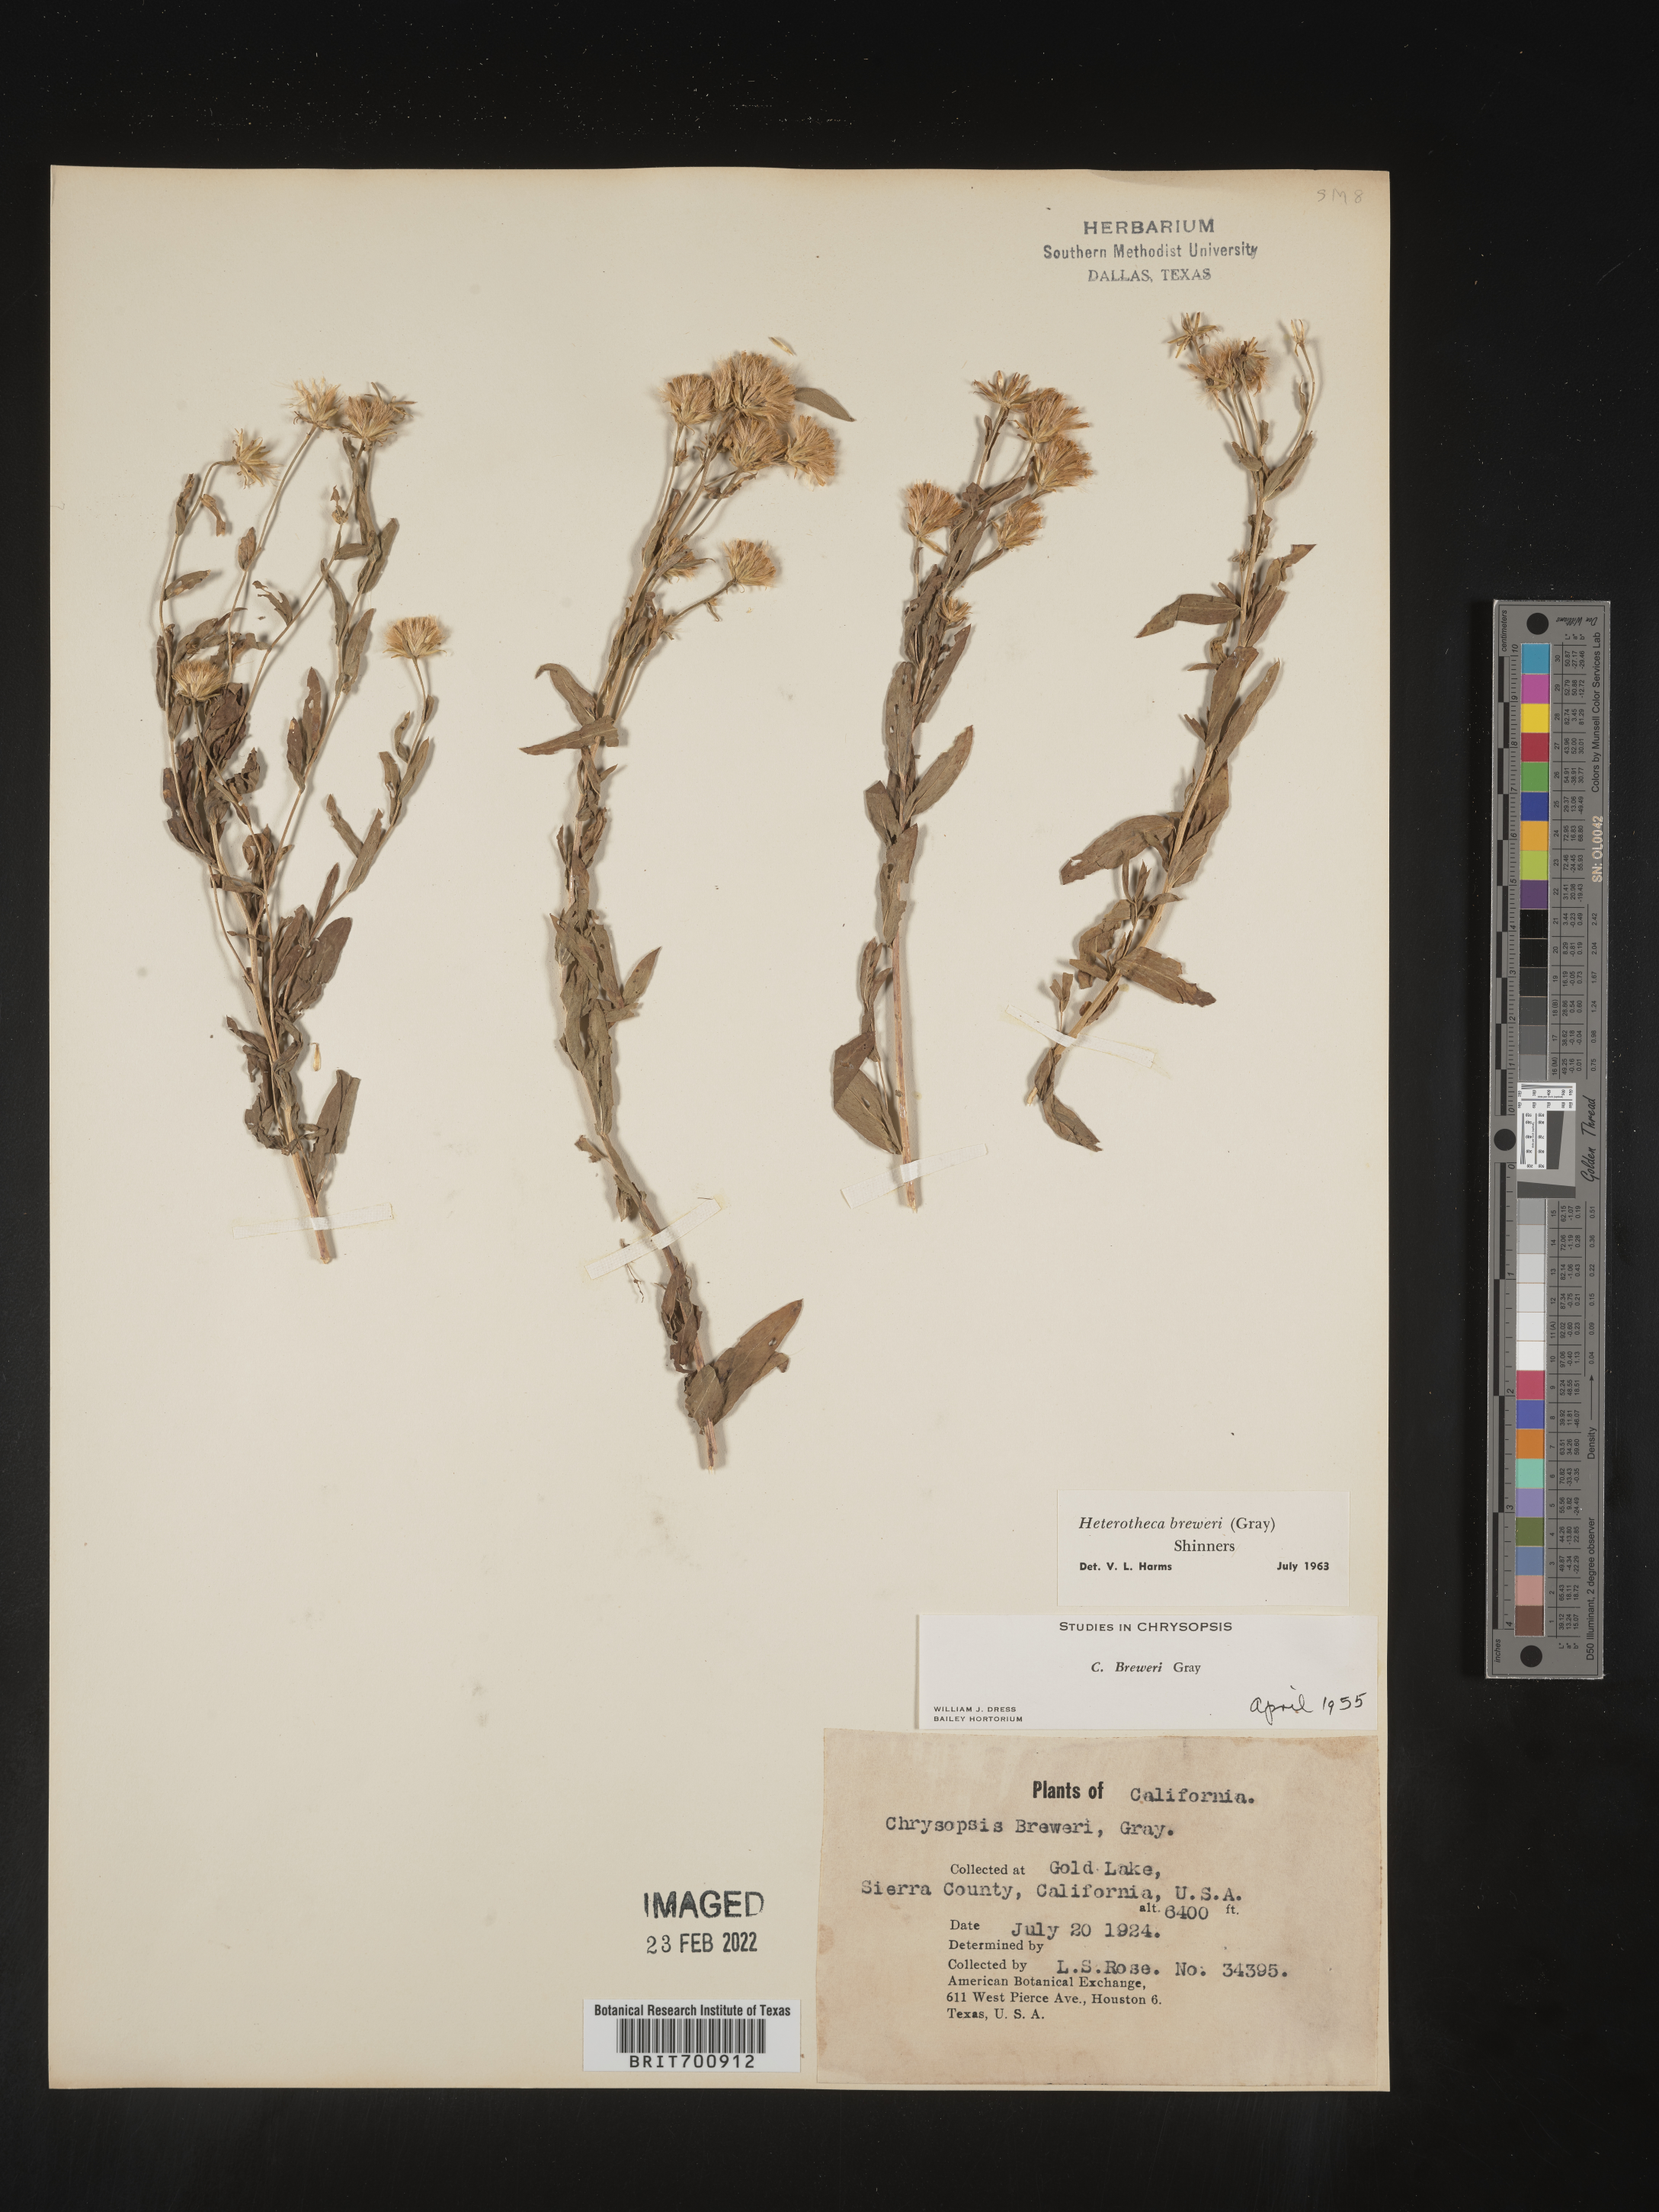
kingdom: Plantae
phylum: Tracheophyta
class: Magnoliopsida
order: Asterales
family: Asteraceae
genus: Eucephalus
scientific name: Eucephalus breweri
